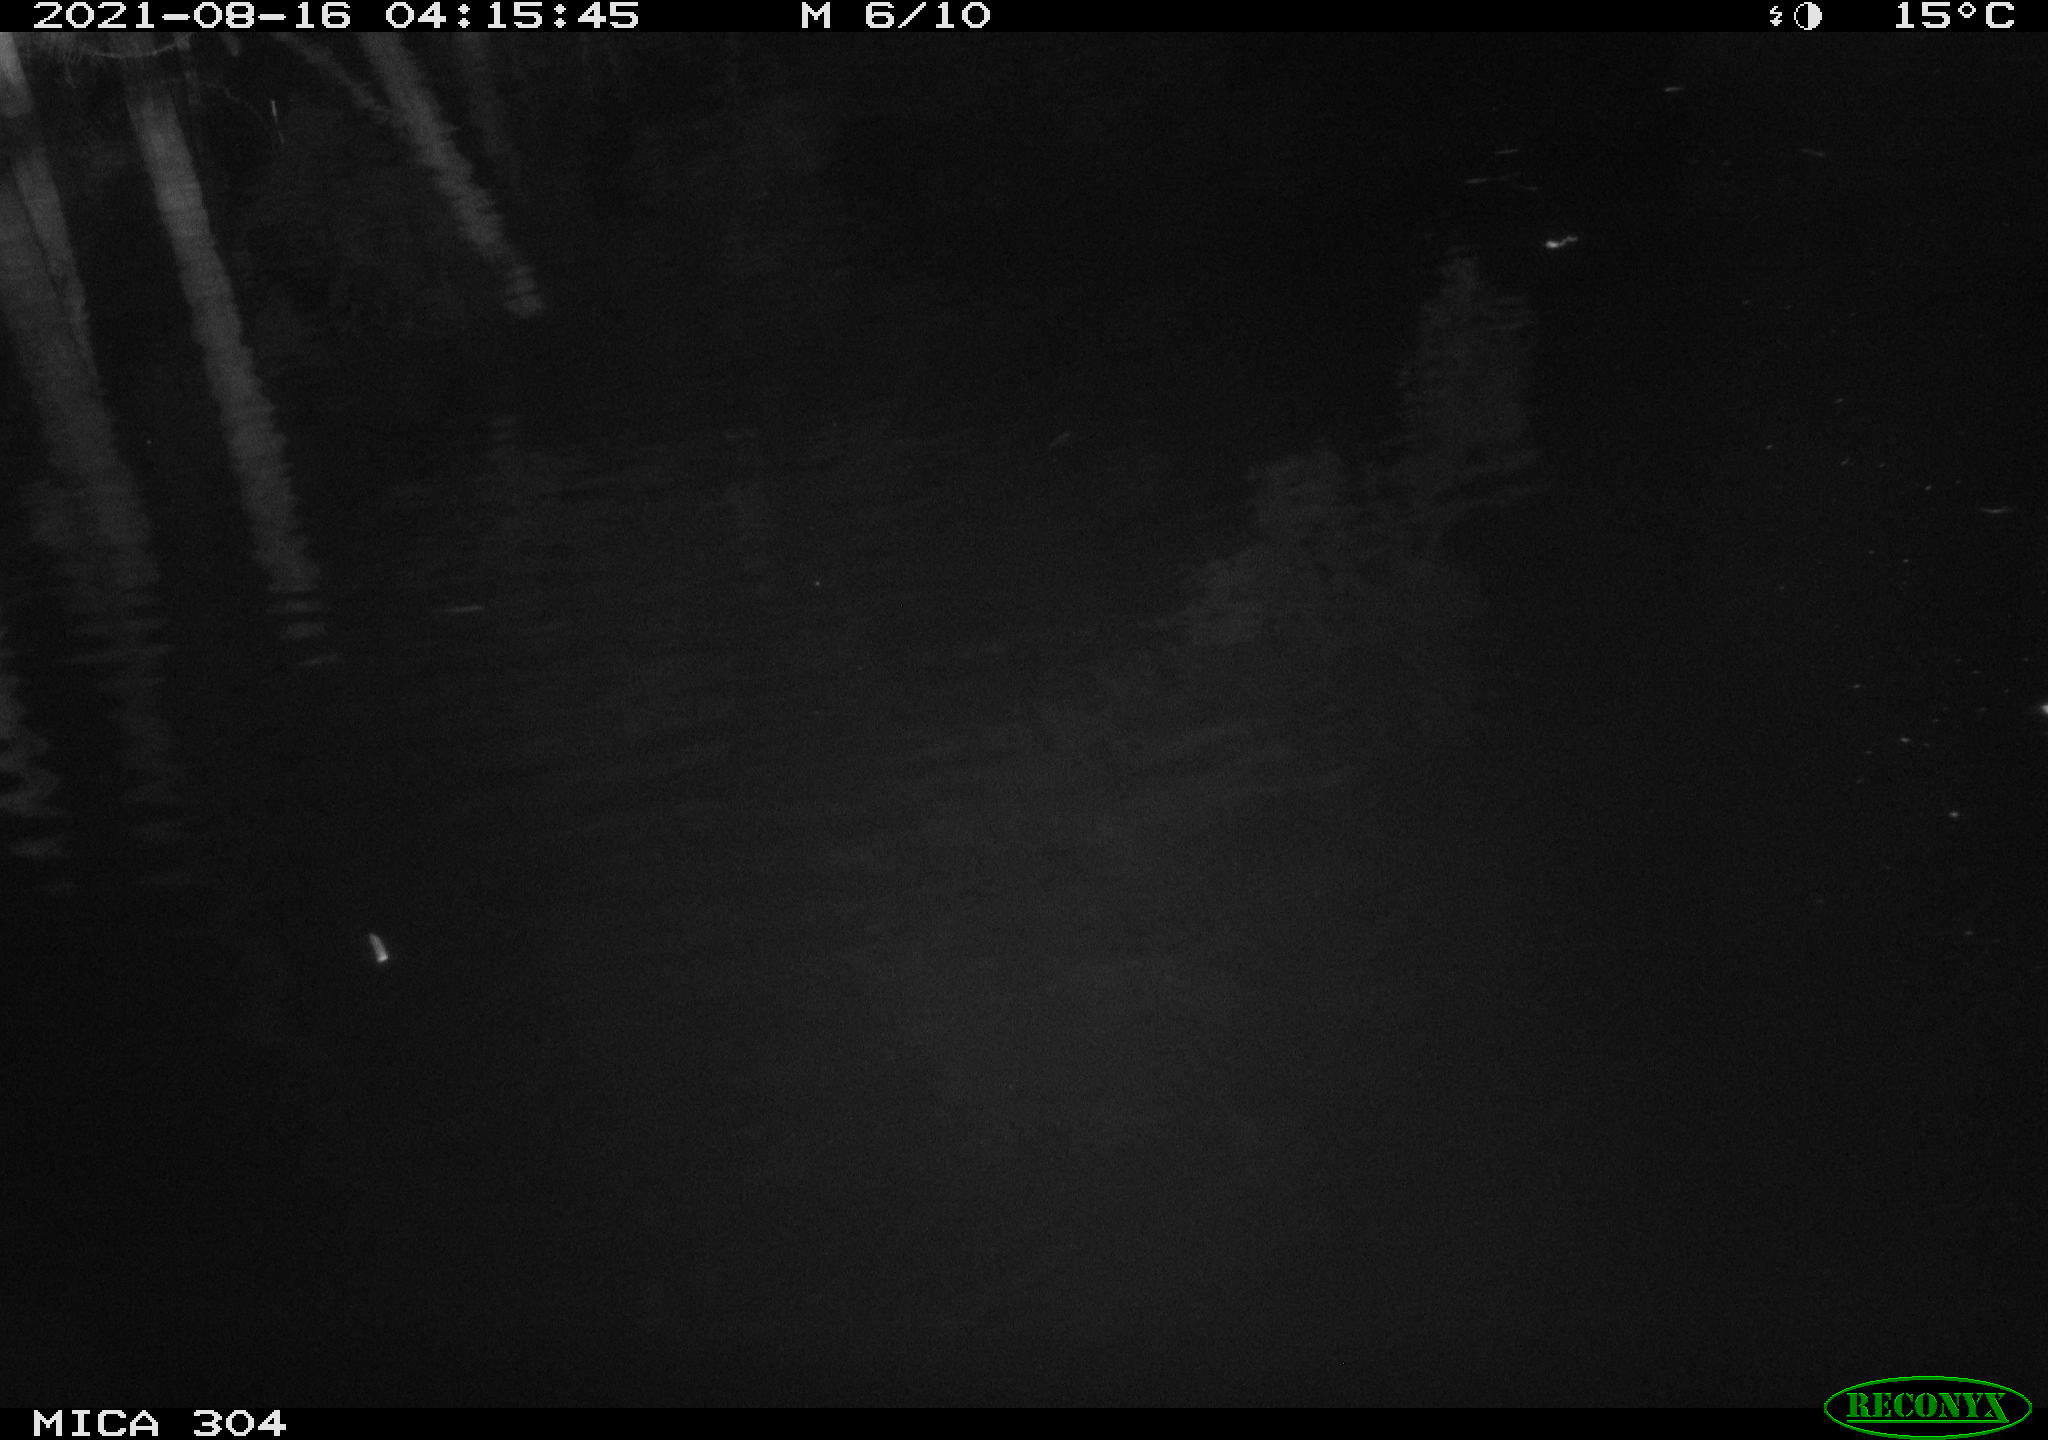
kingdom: Animalia
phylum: Chordata
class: Aves
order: Anseriformes
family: Anatidae
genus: Anas
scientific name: Anas platyrhynchos
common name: Mallard
